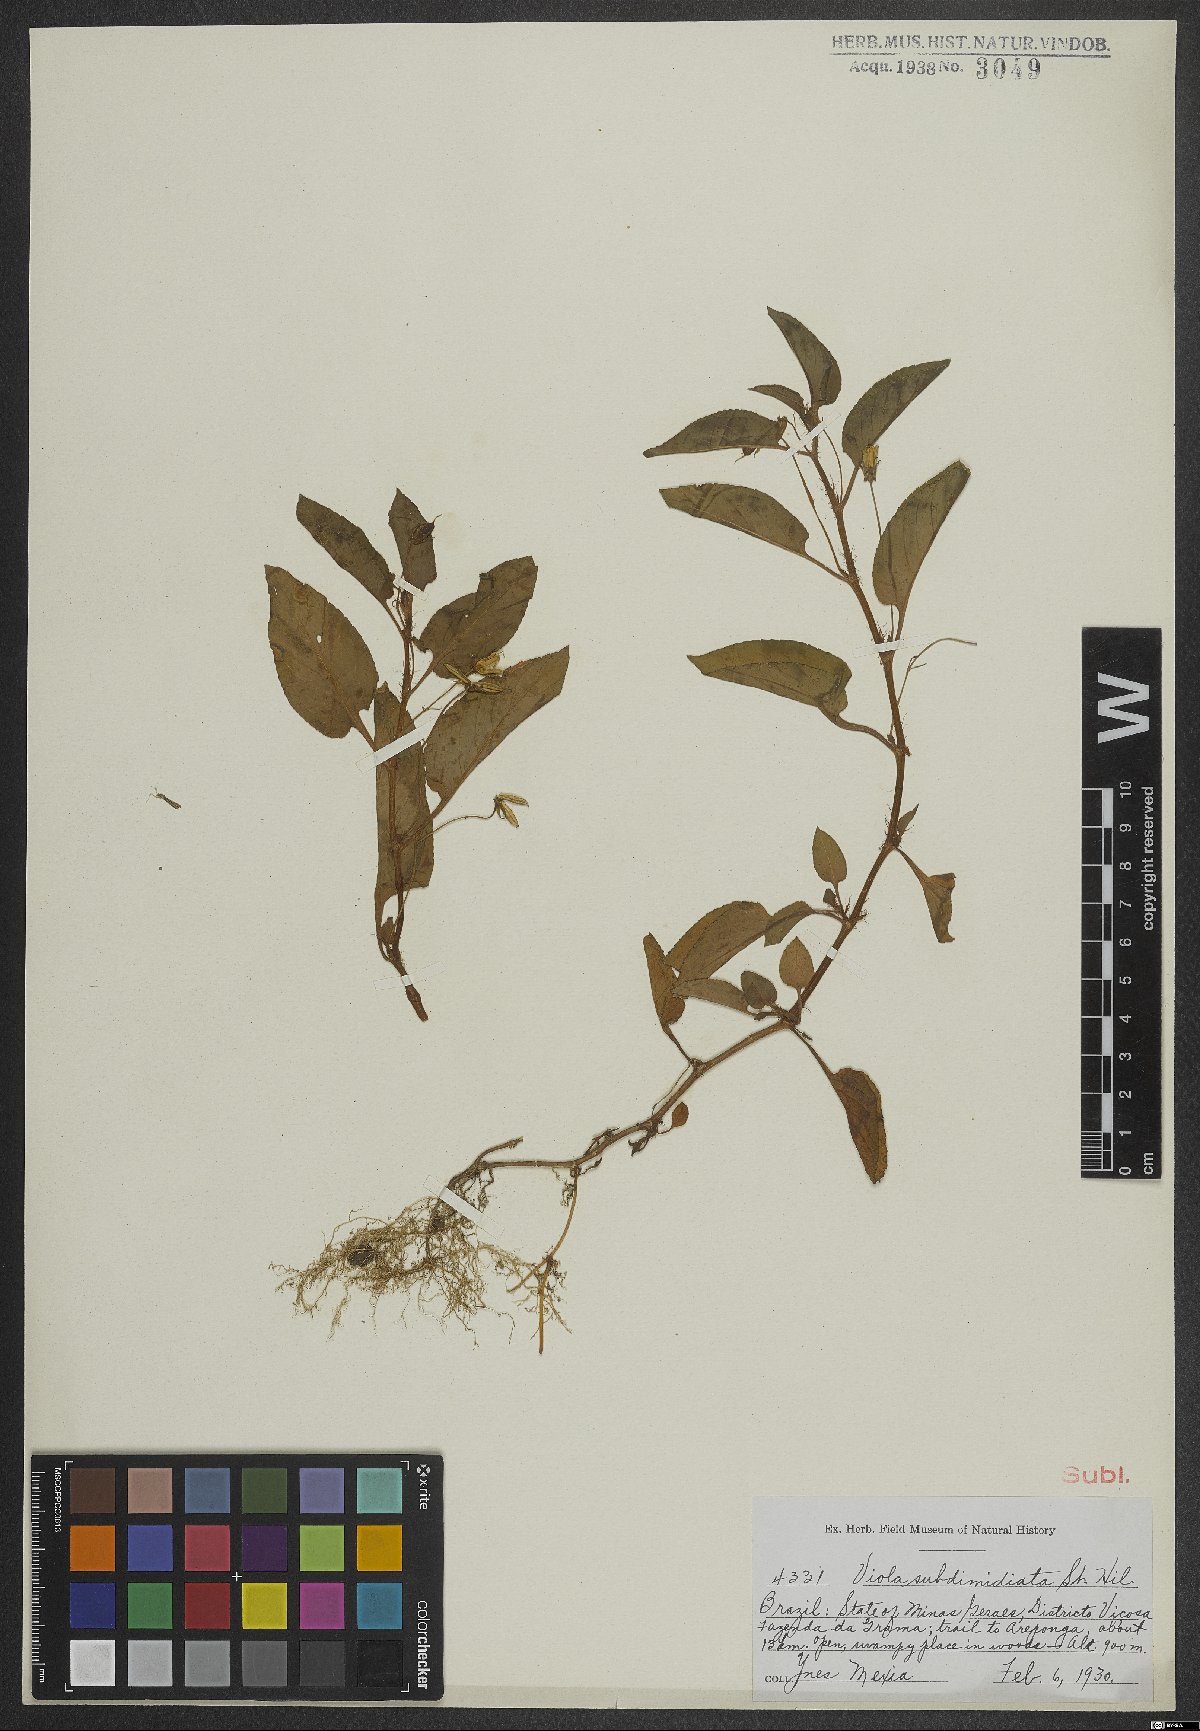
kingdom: Plantae
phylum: Tracheophyta
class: Magnoliopsida
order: Malpighiales
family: Violaceae
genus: Viola
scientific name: Viola subdimidiata
